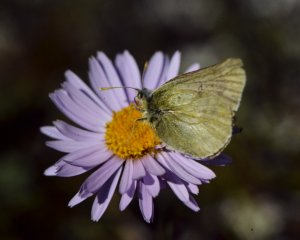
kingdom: Animalia
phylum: Arthropoda
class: Insecta
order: Lepidoptera
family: Pieridae
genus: Colias
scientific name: Colias nastes
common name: Labrador Sulphur
